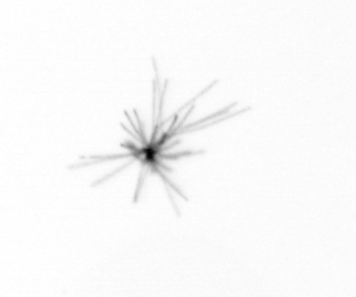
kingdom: Bacteria
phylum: Cyanobacteria
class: Cyanobacteriia
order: Cyanobacteriales
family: Microcoleaceae
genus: Trichodesmium
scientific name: Trichodesmium
